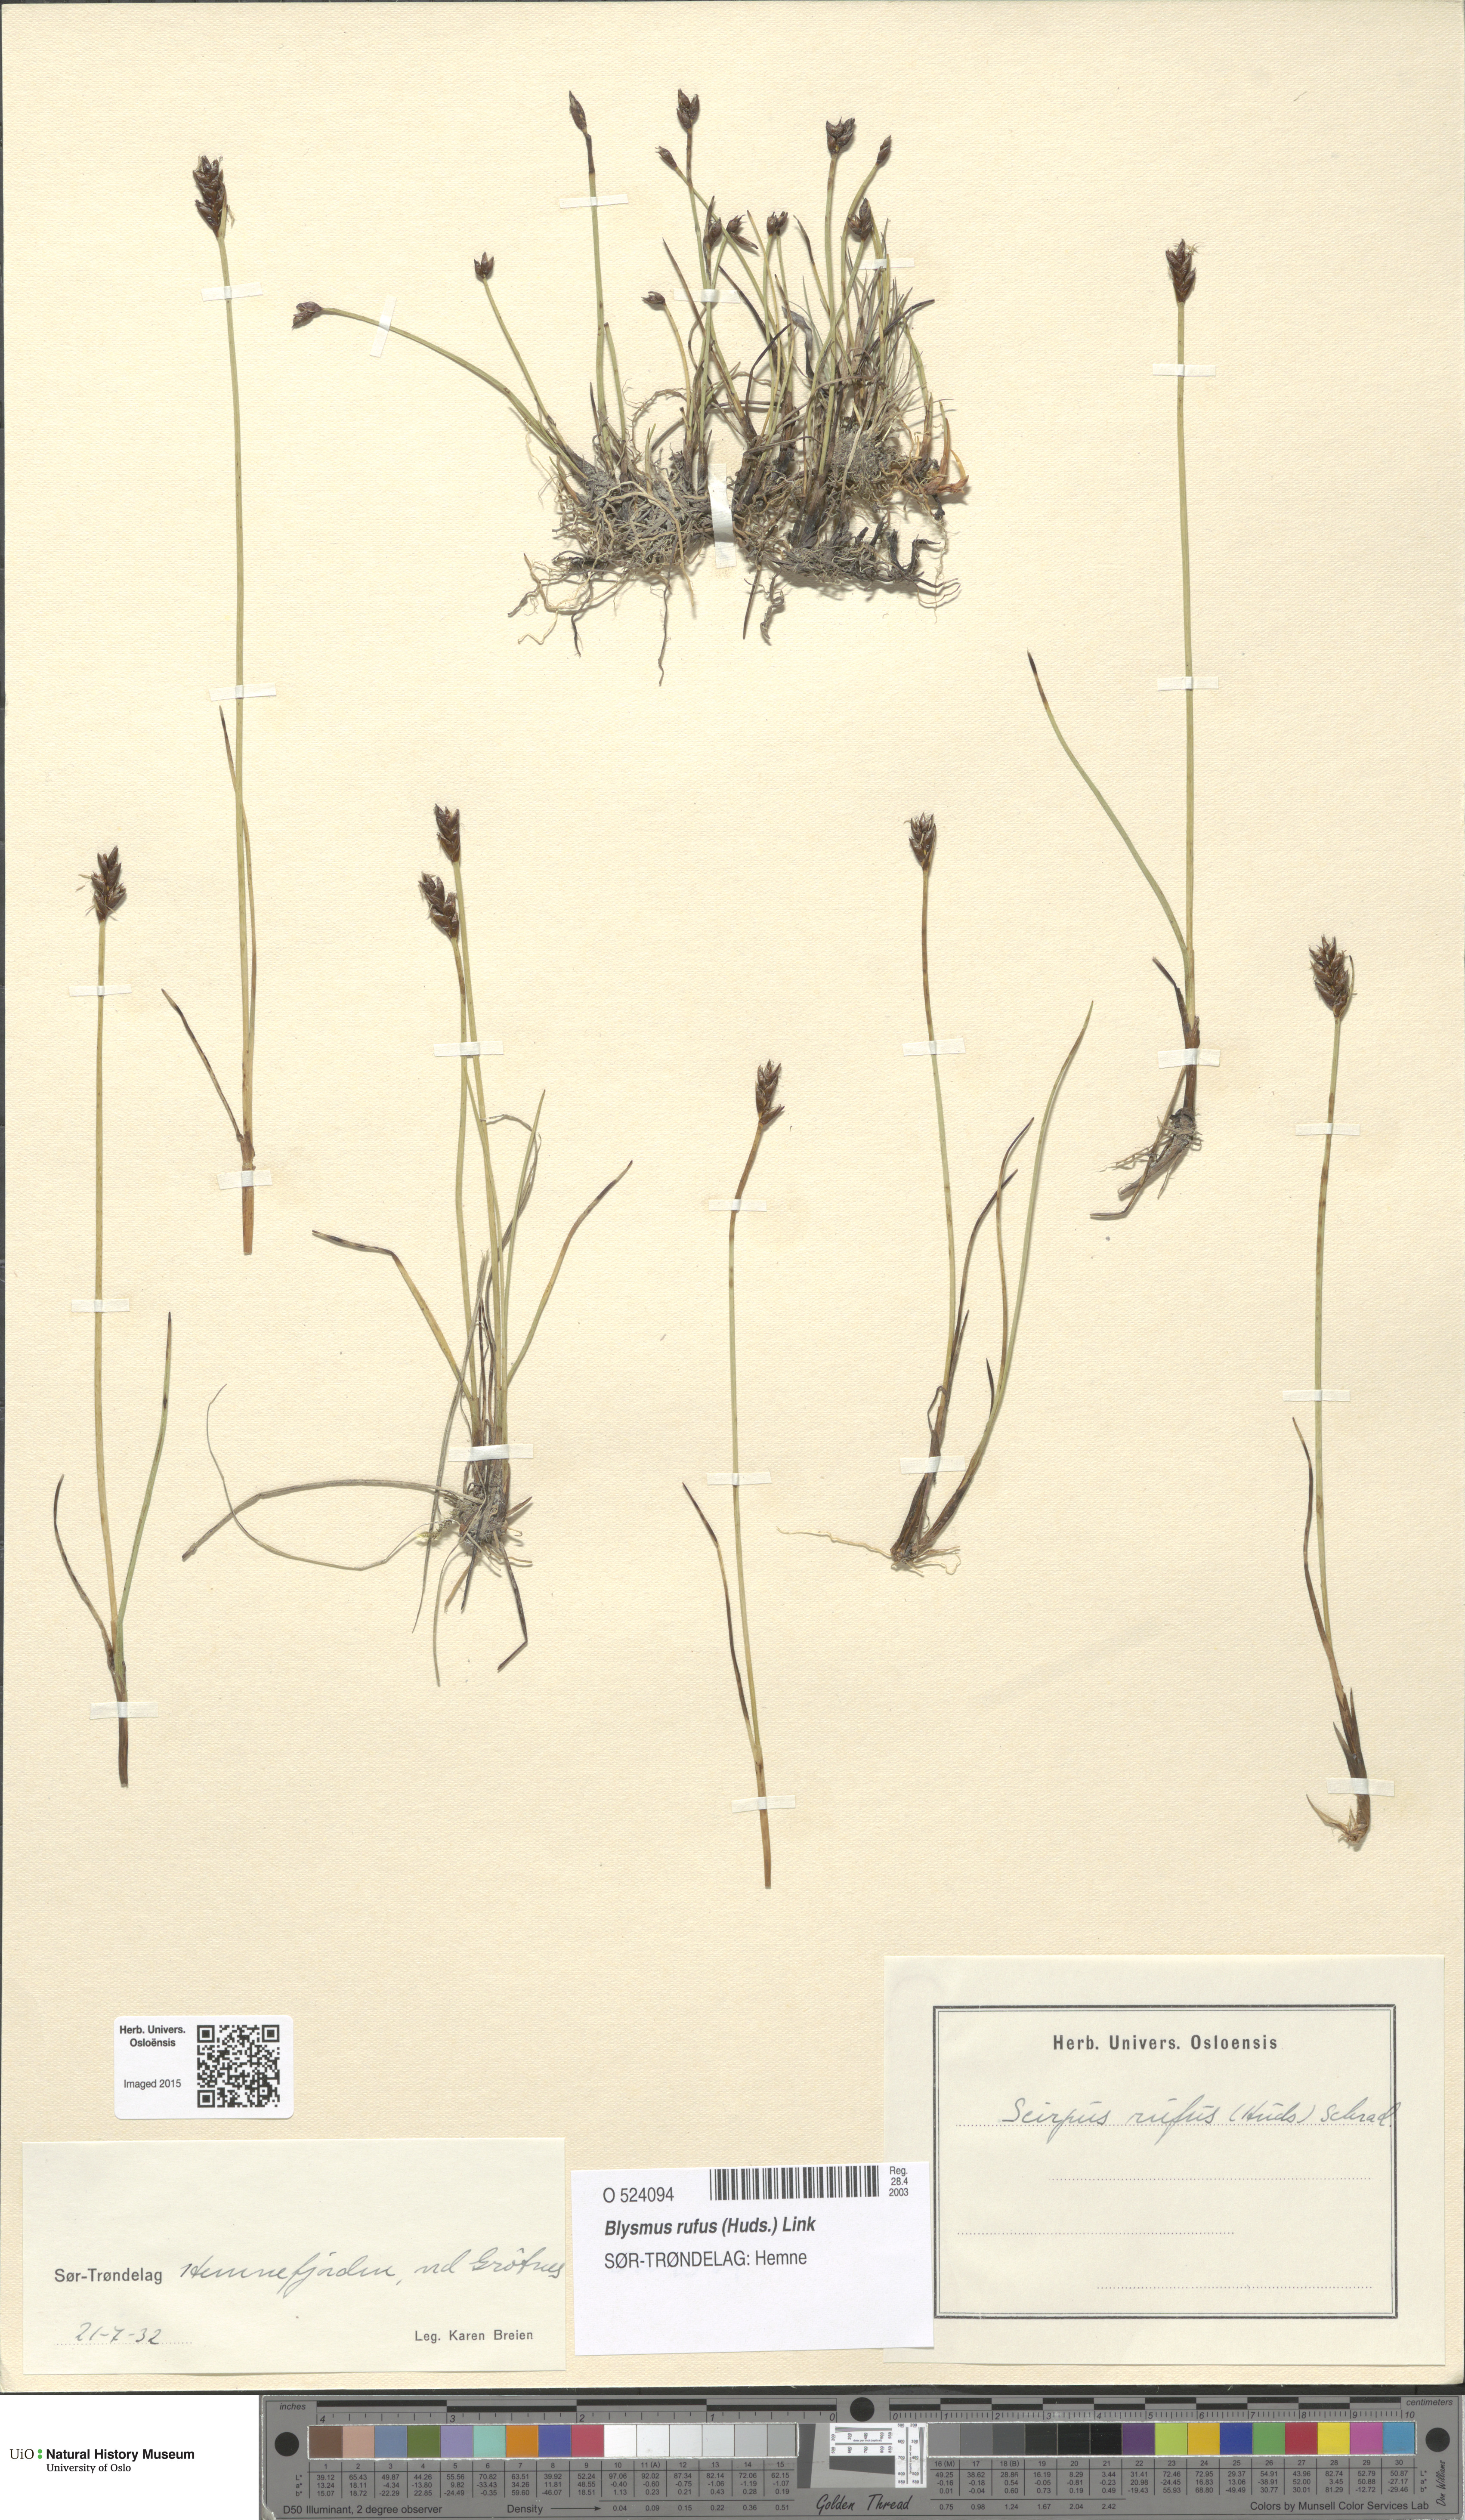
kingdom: Plantae
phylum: Tracheophyta
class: Liliopsida
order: Poales
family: Cyperaceae
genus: Blysmus
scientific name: Blysmus rufus
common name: Saltmarsh flat-sedge
